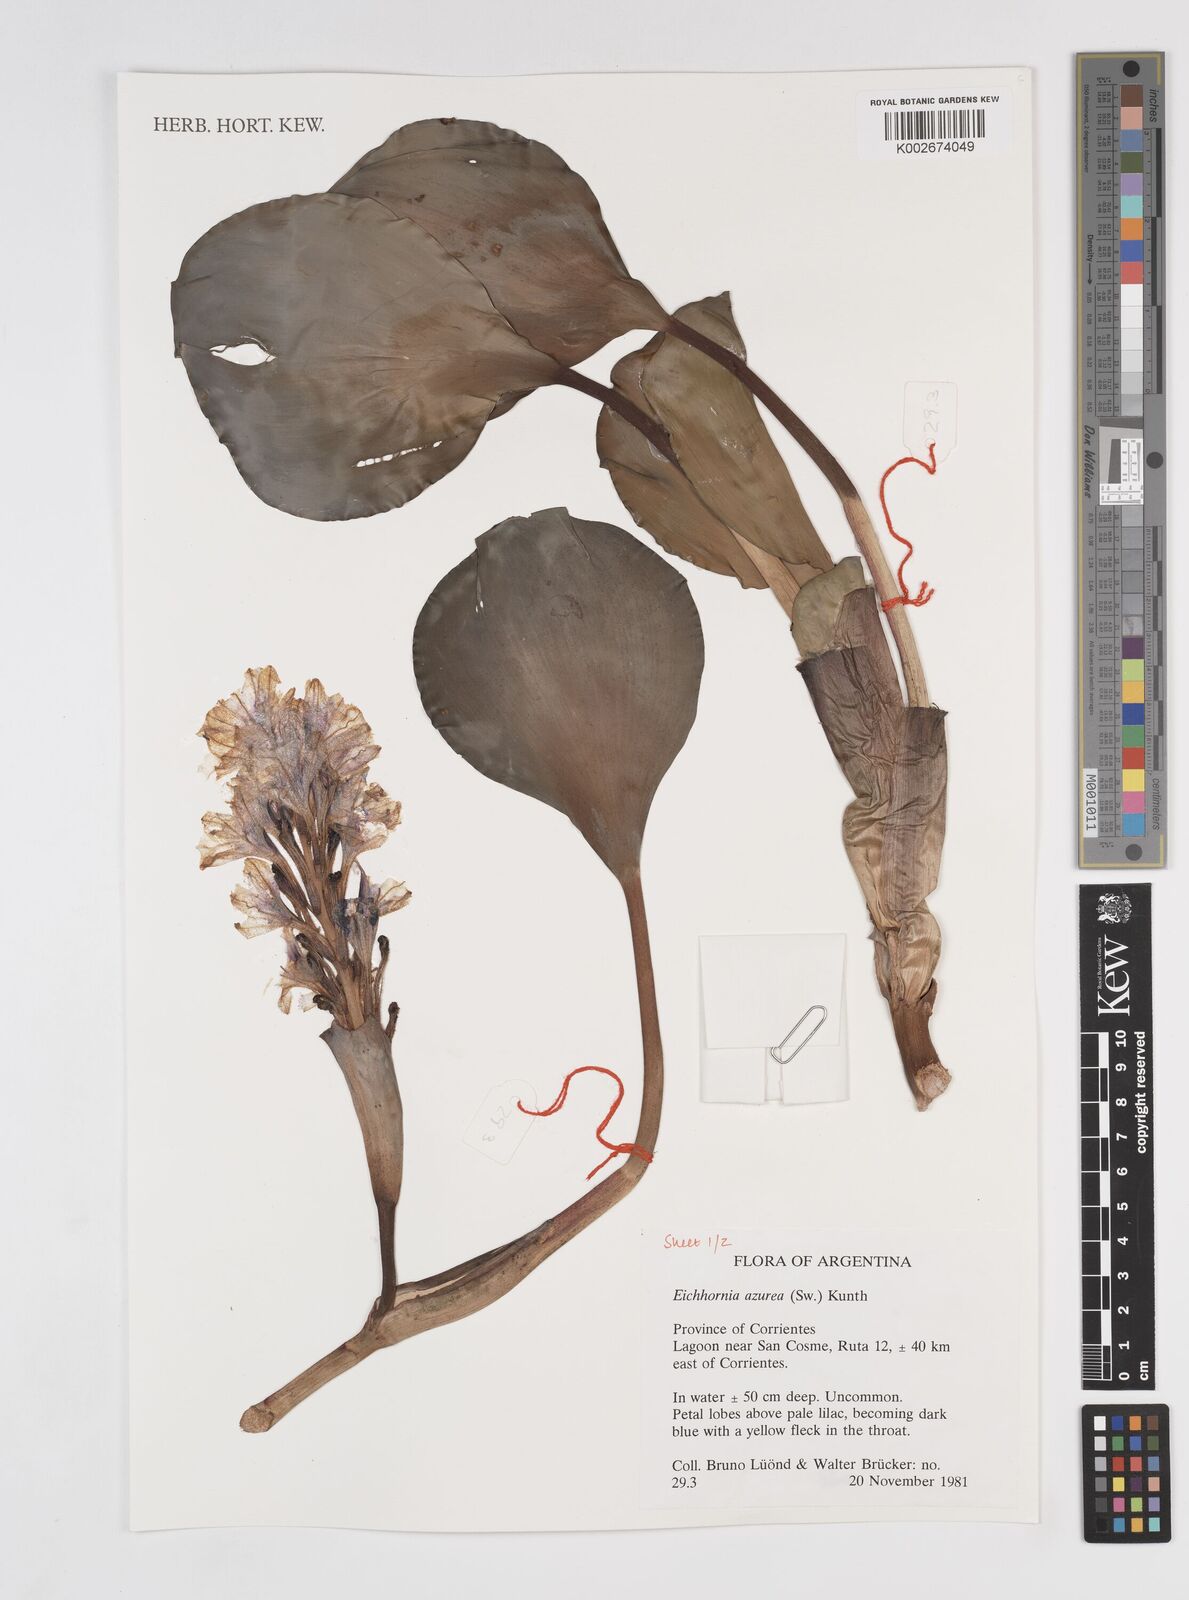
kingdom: Plantae
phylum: Tracheophyta
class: Liliopsida
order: Commelinales
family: Pontederiaceae
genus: Pontederia
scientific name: Pontederia azurea
